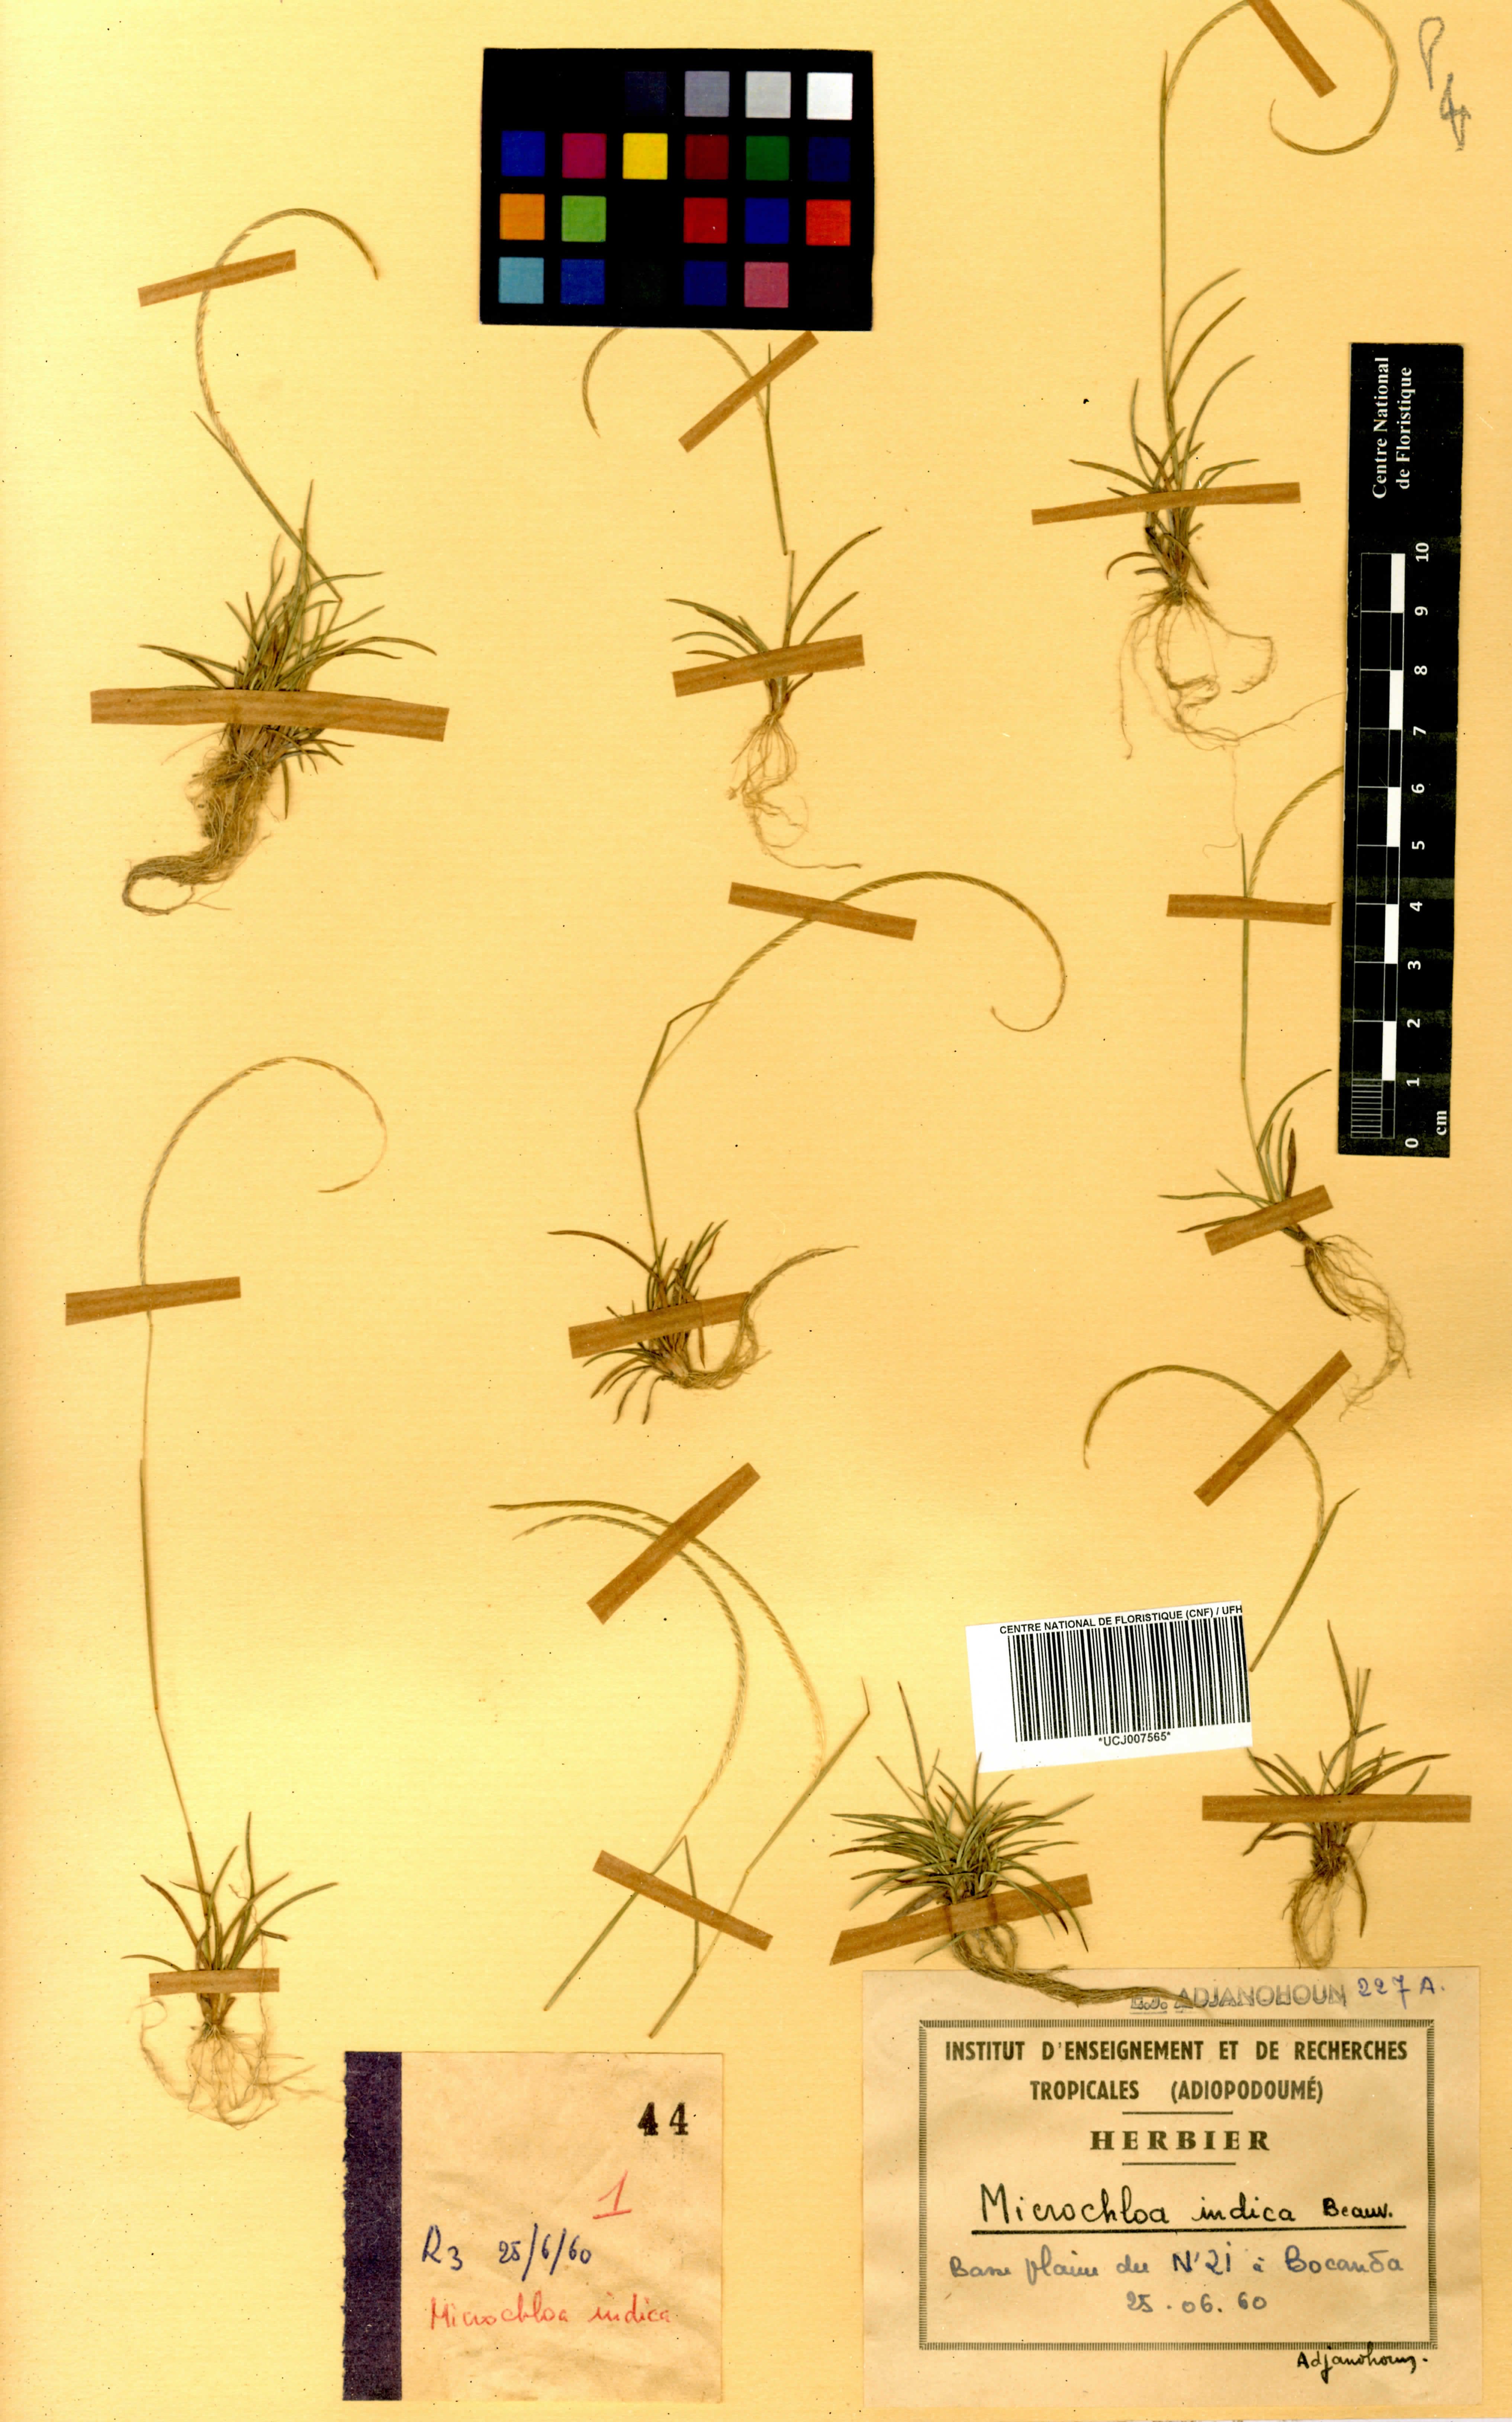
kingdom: Plantae
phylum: Tracheophyta
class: Liliopsida
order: Poales
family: Poaceae
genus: Microchloa
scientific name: Microchloa indica
